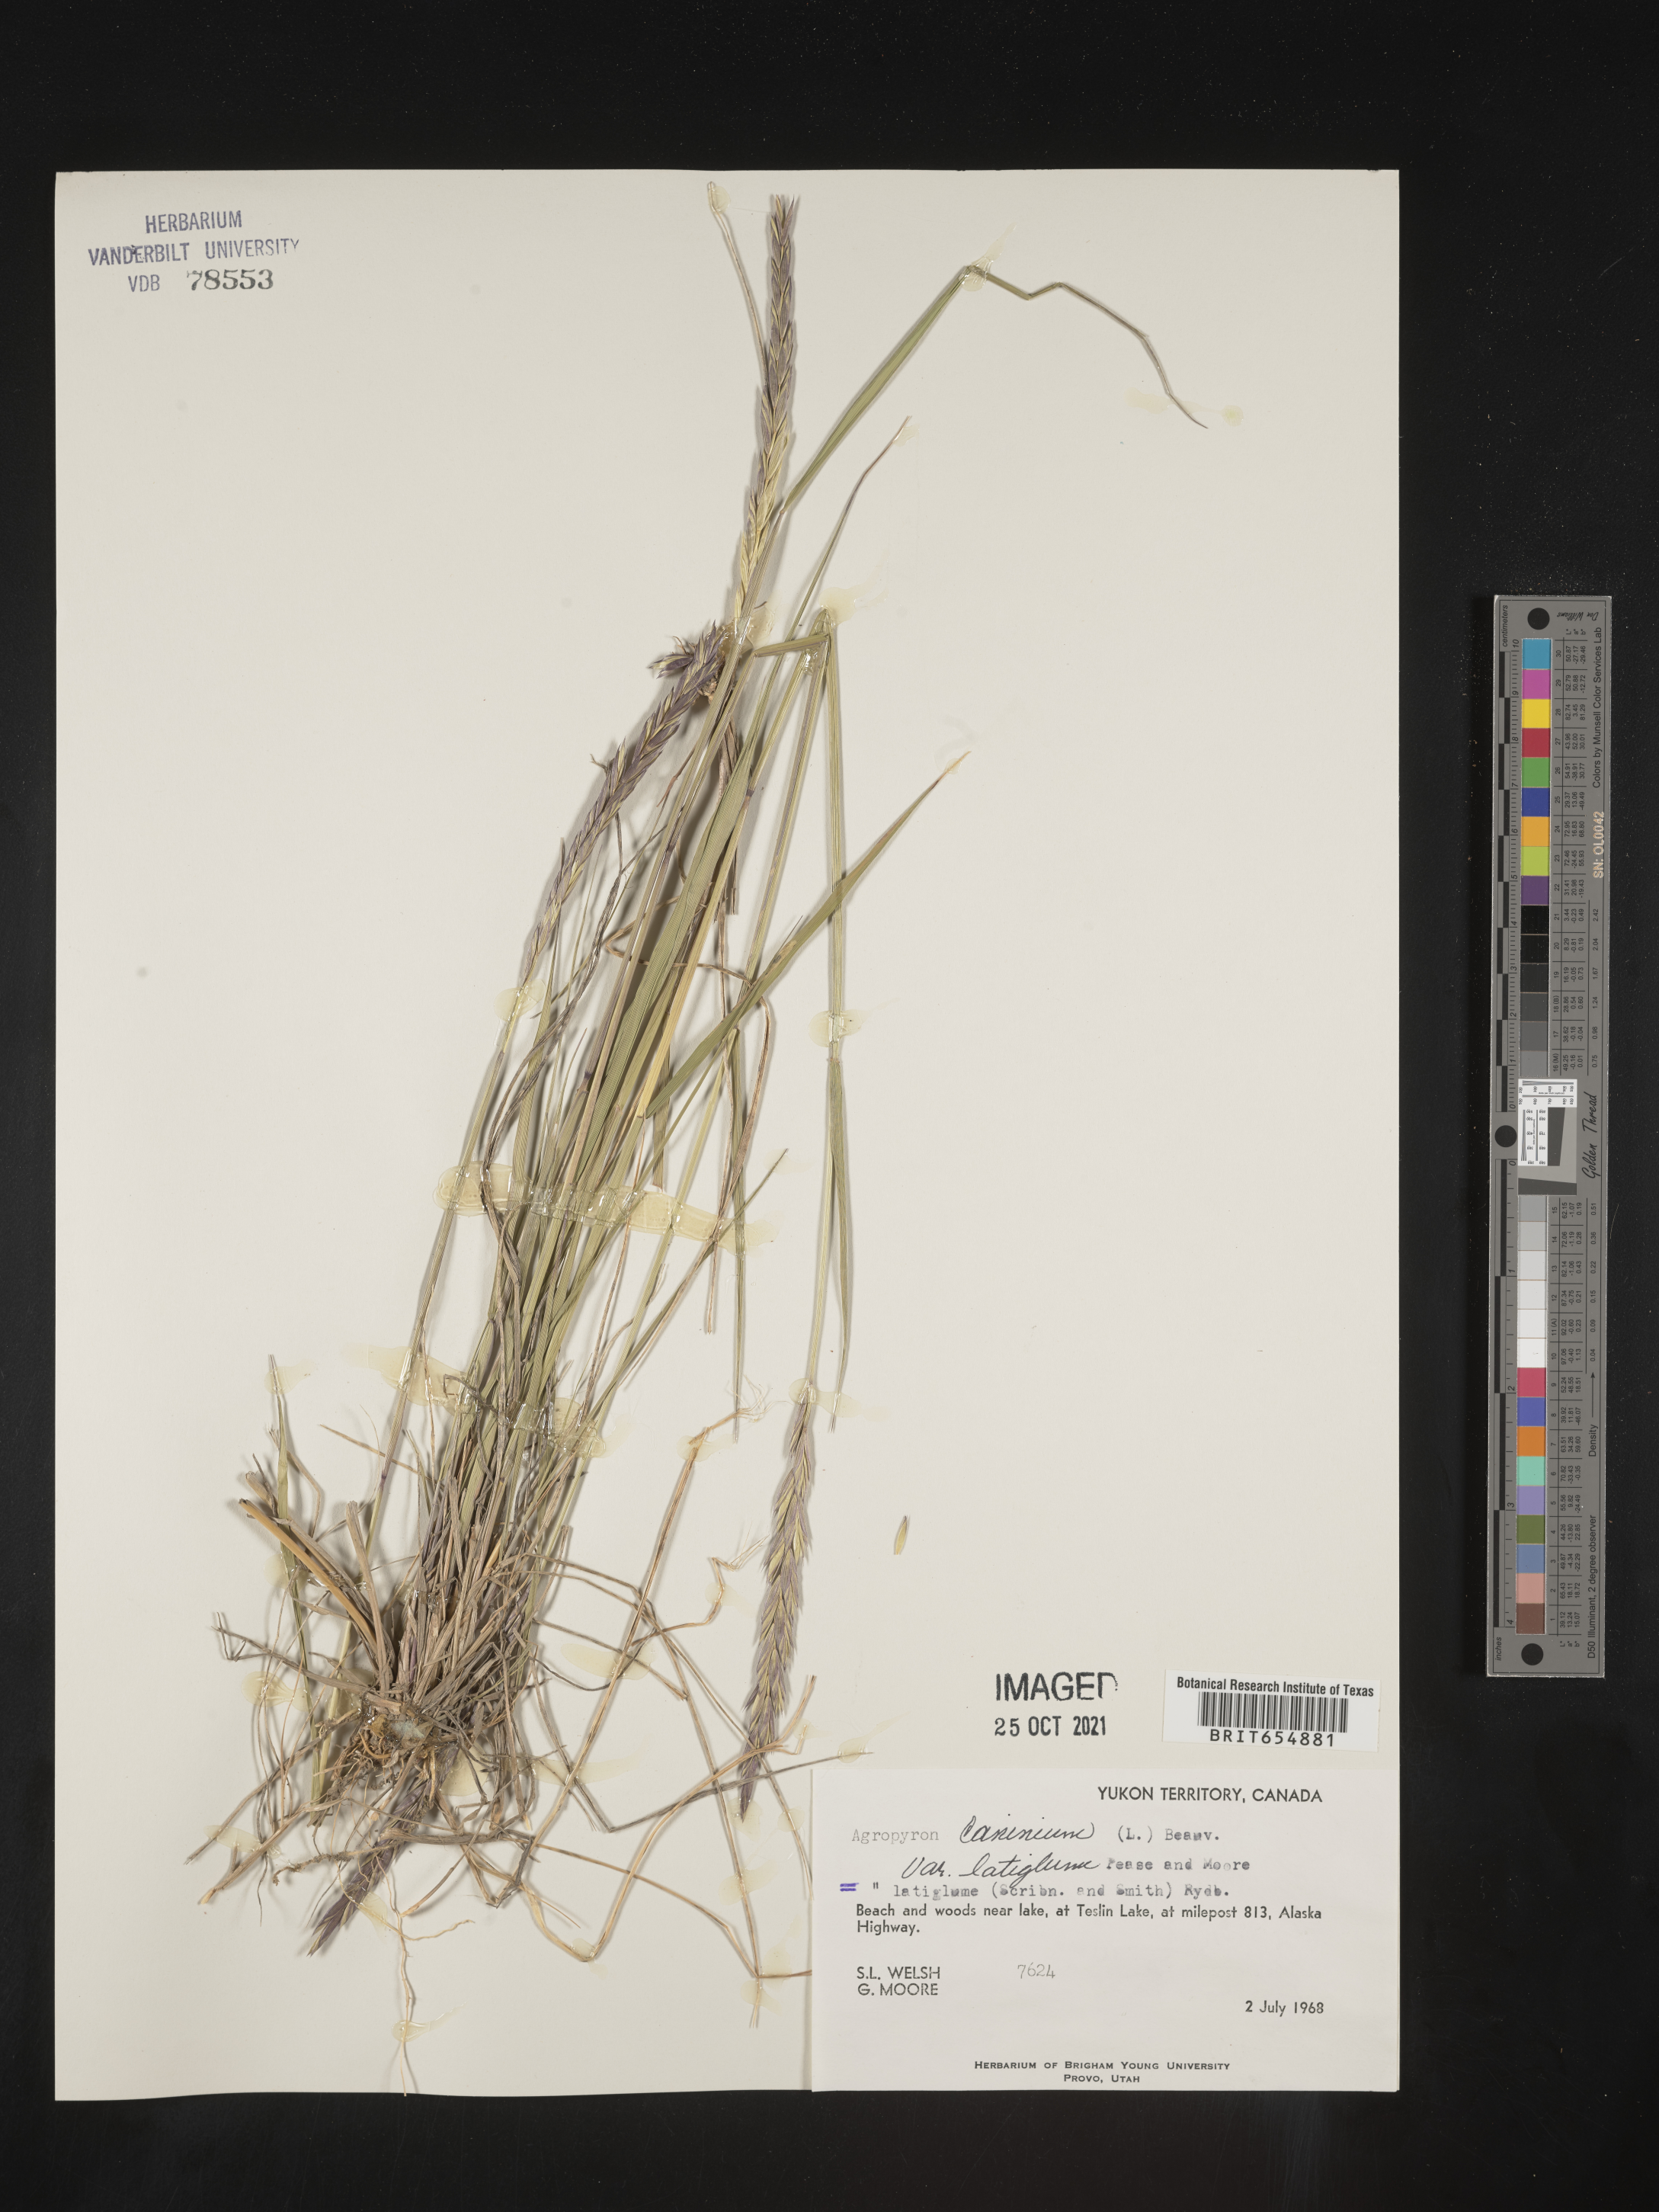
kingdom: Plantae
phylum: Tracheophyta
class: Liliopsida
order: Poales
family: Poaceae
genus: Agropyron
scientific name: Agropyron
